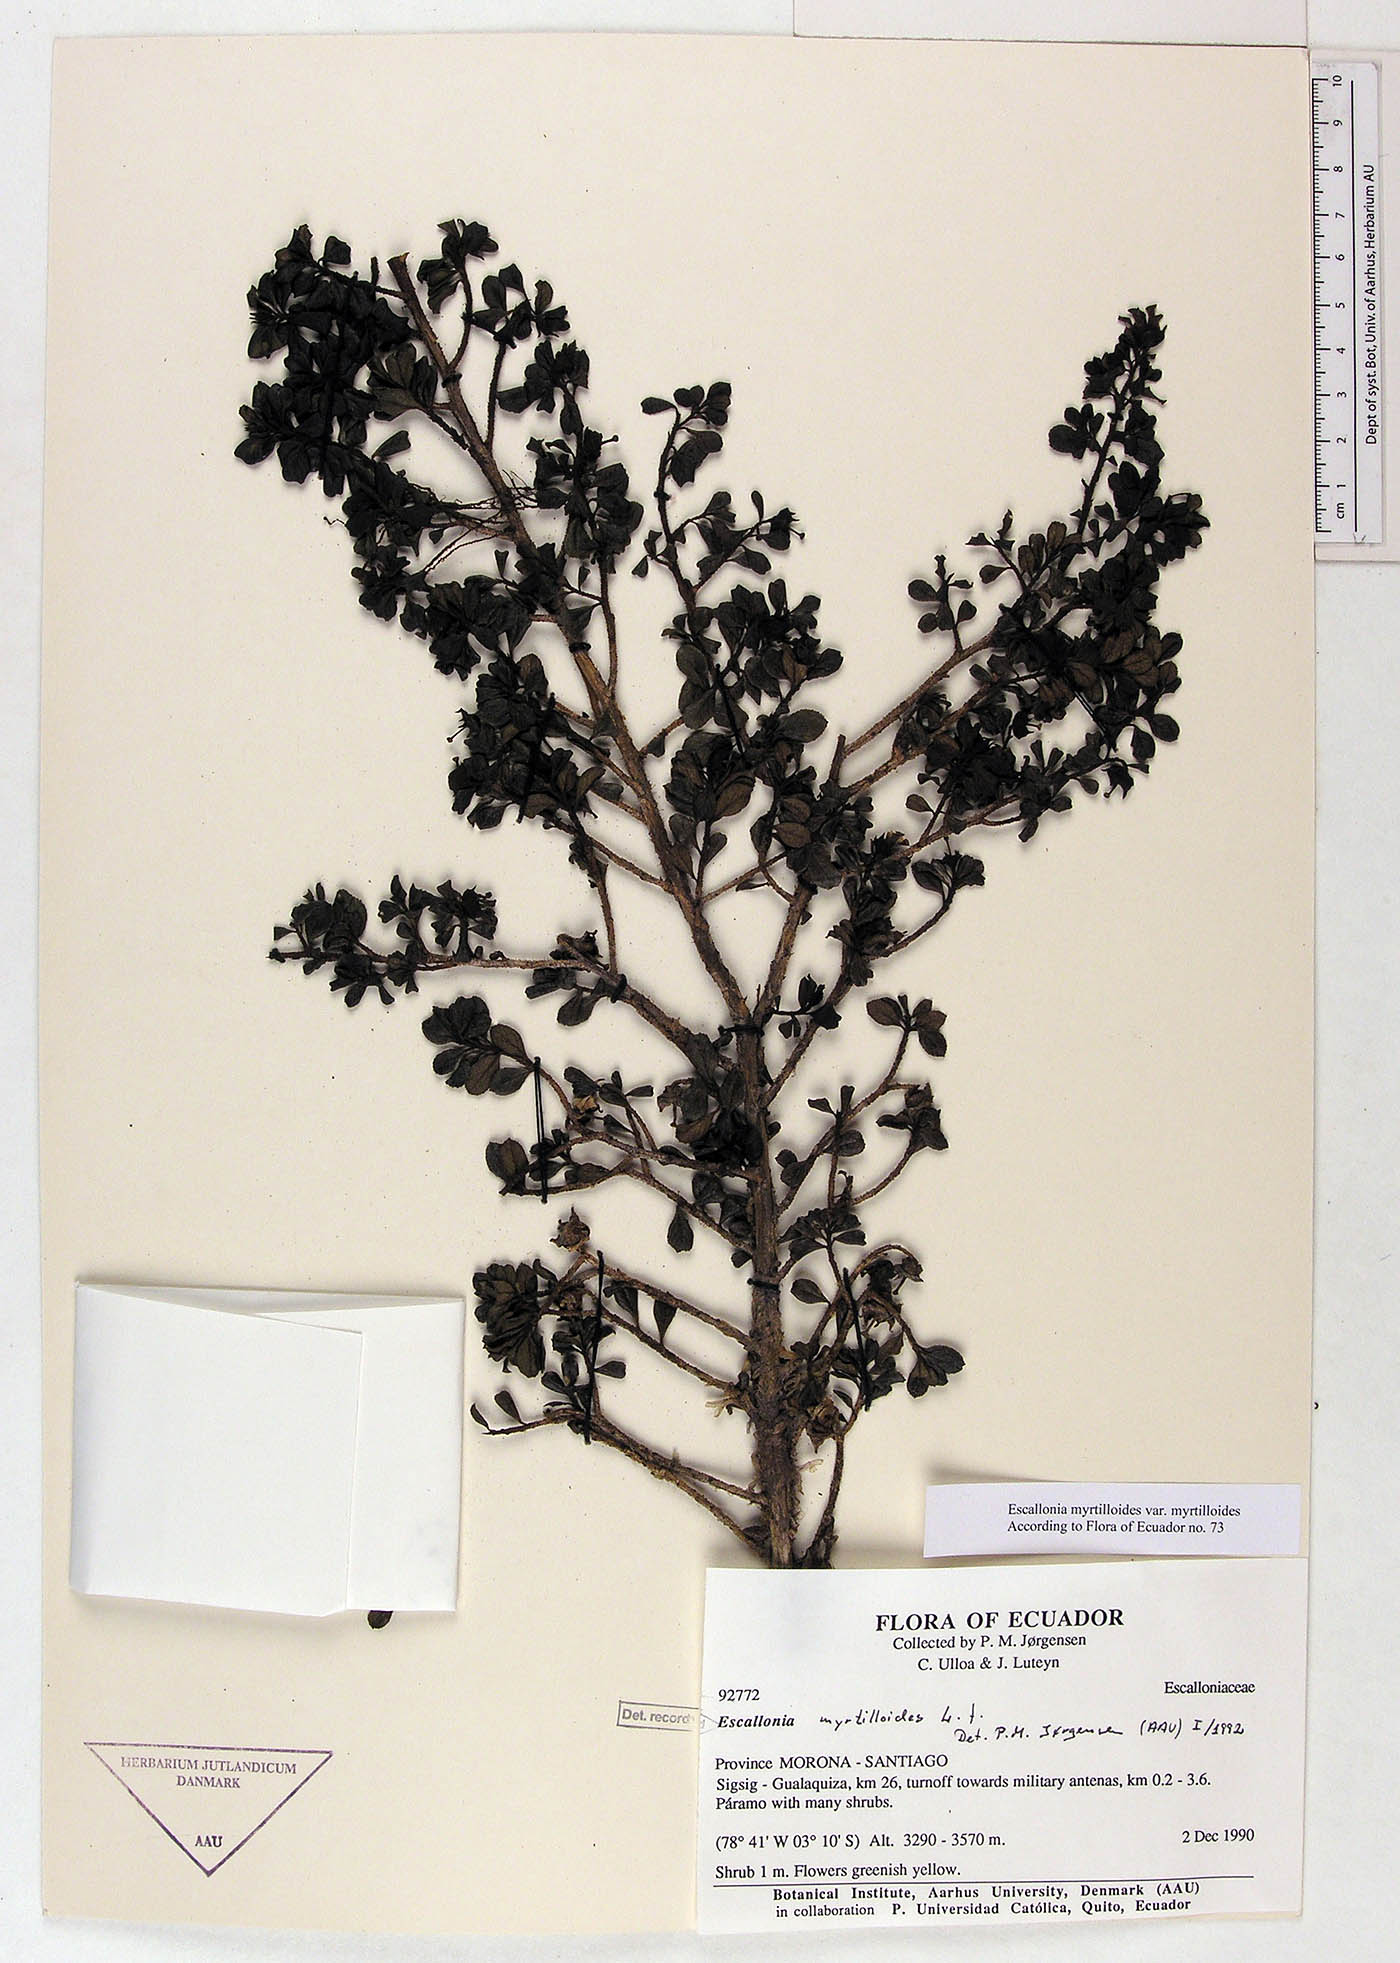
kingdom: Plantae
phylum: Tracheophyta
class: Magnoliopsida
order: Escalloniales
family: Escalloniaceae
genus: Escallonia
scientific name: Escallonia myrtilloides
